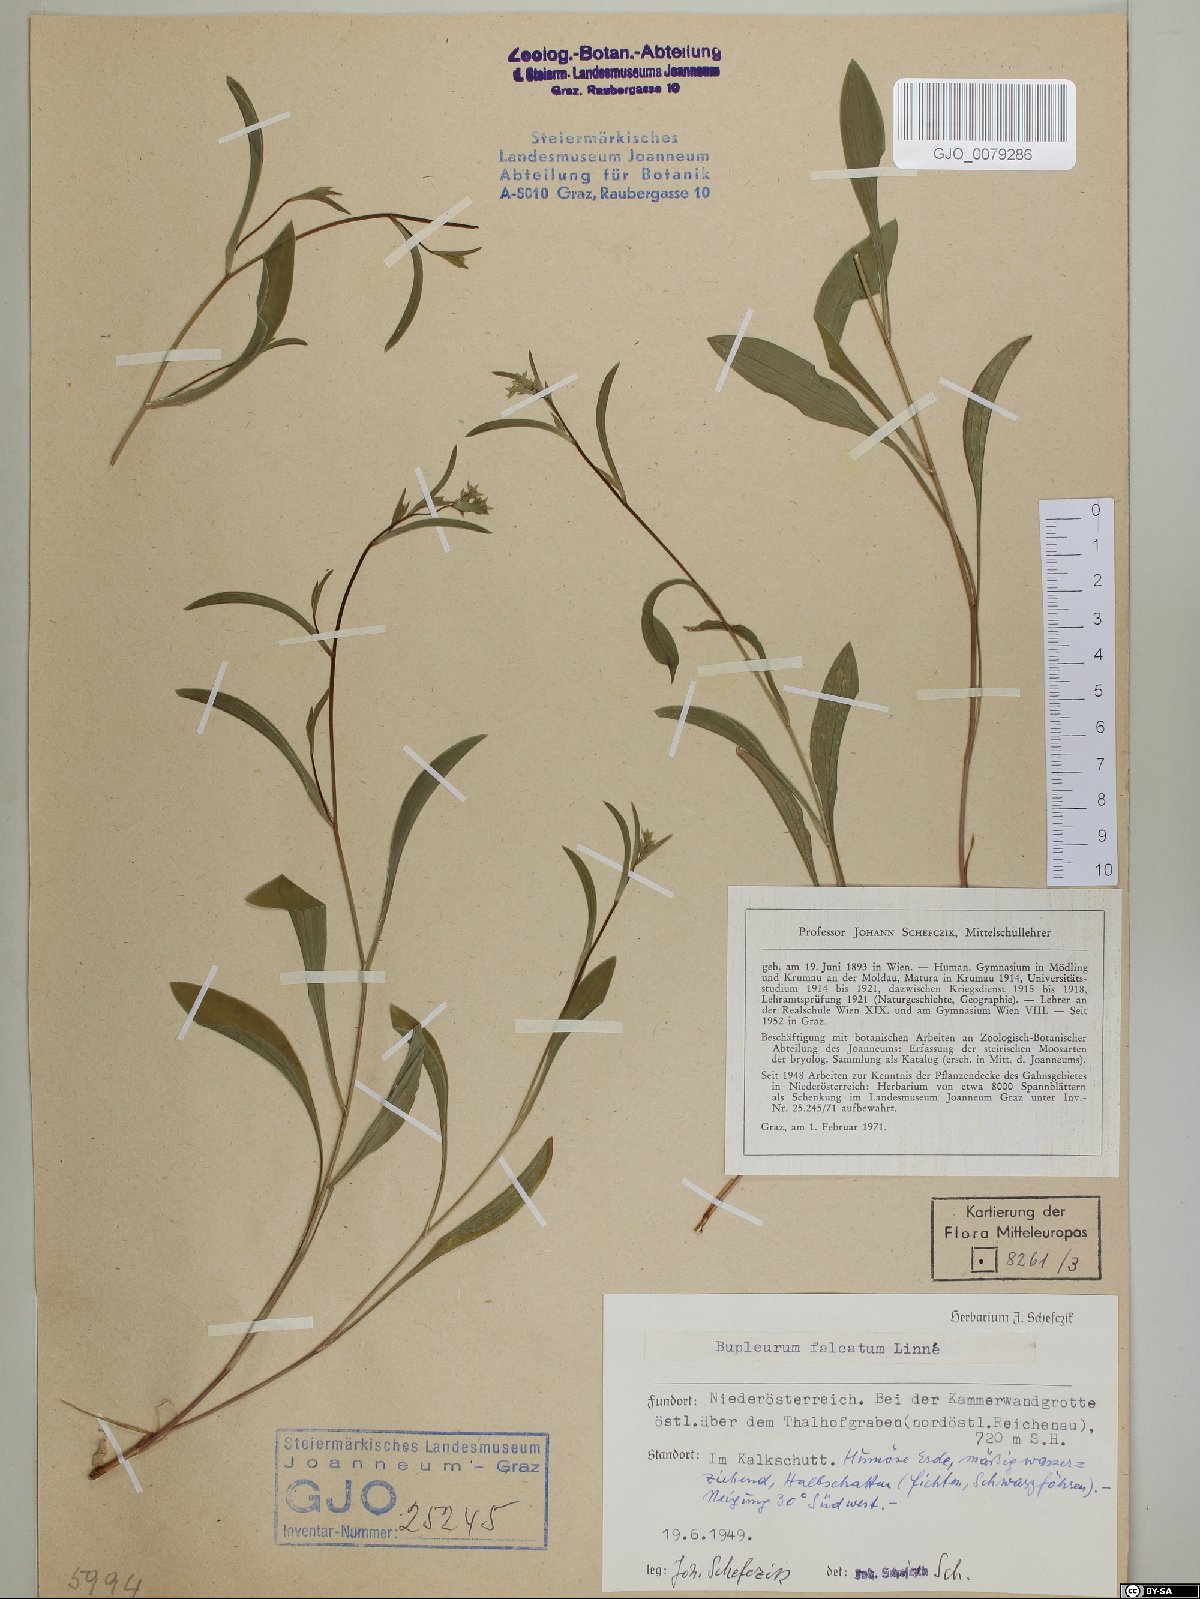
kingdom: Plantae
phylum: Tracheophyta
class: Magnoliopsida
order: Apiales
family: Apiaceae
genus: Bupleurum
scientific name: Bupleurum falcatum
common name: Sickle-leaved hare's-ear
